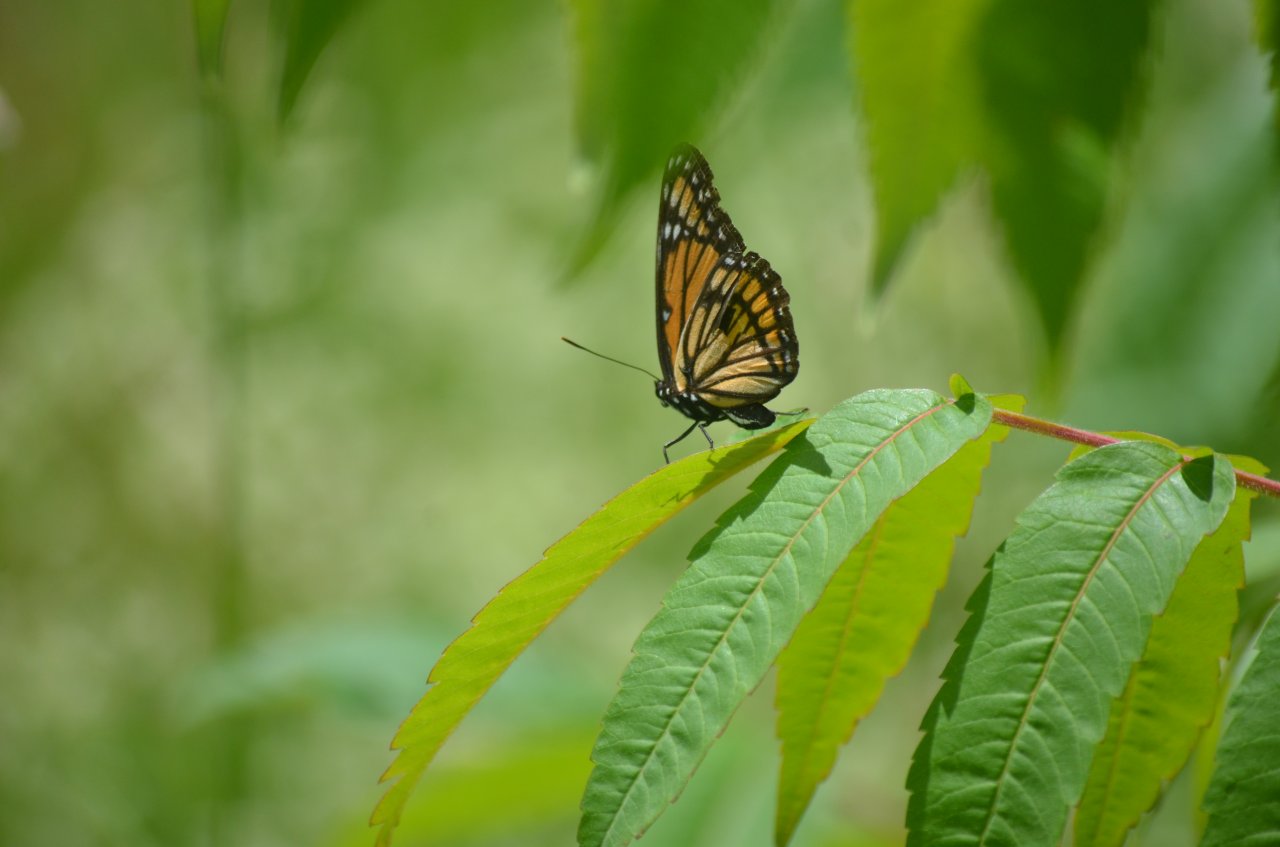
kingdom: Animalia
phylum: Arthropoda
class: Insecta
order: Lepidoptera
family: Nymphalidae
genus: Limenitis
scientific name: Limenitis archippus
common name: Viceroy
